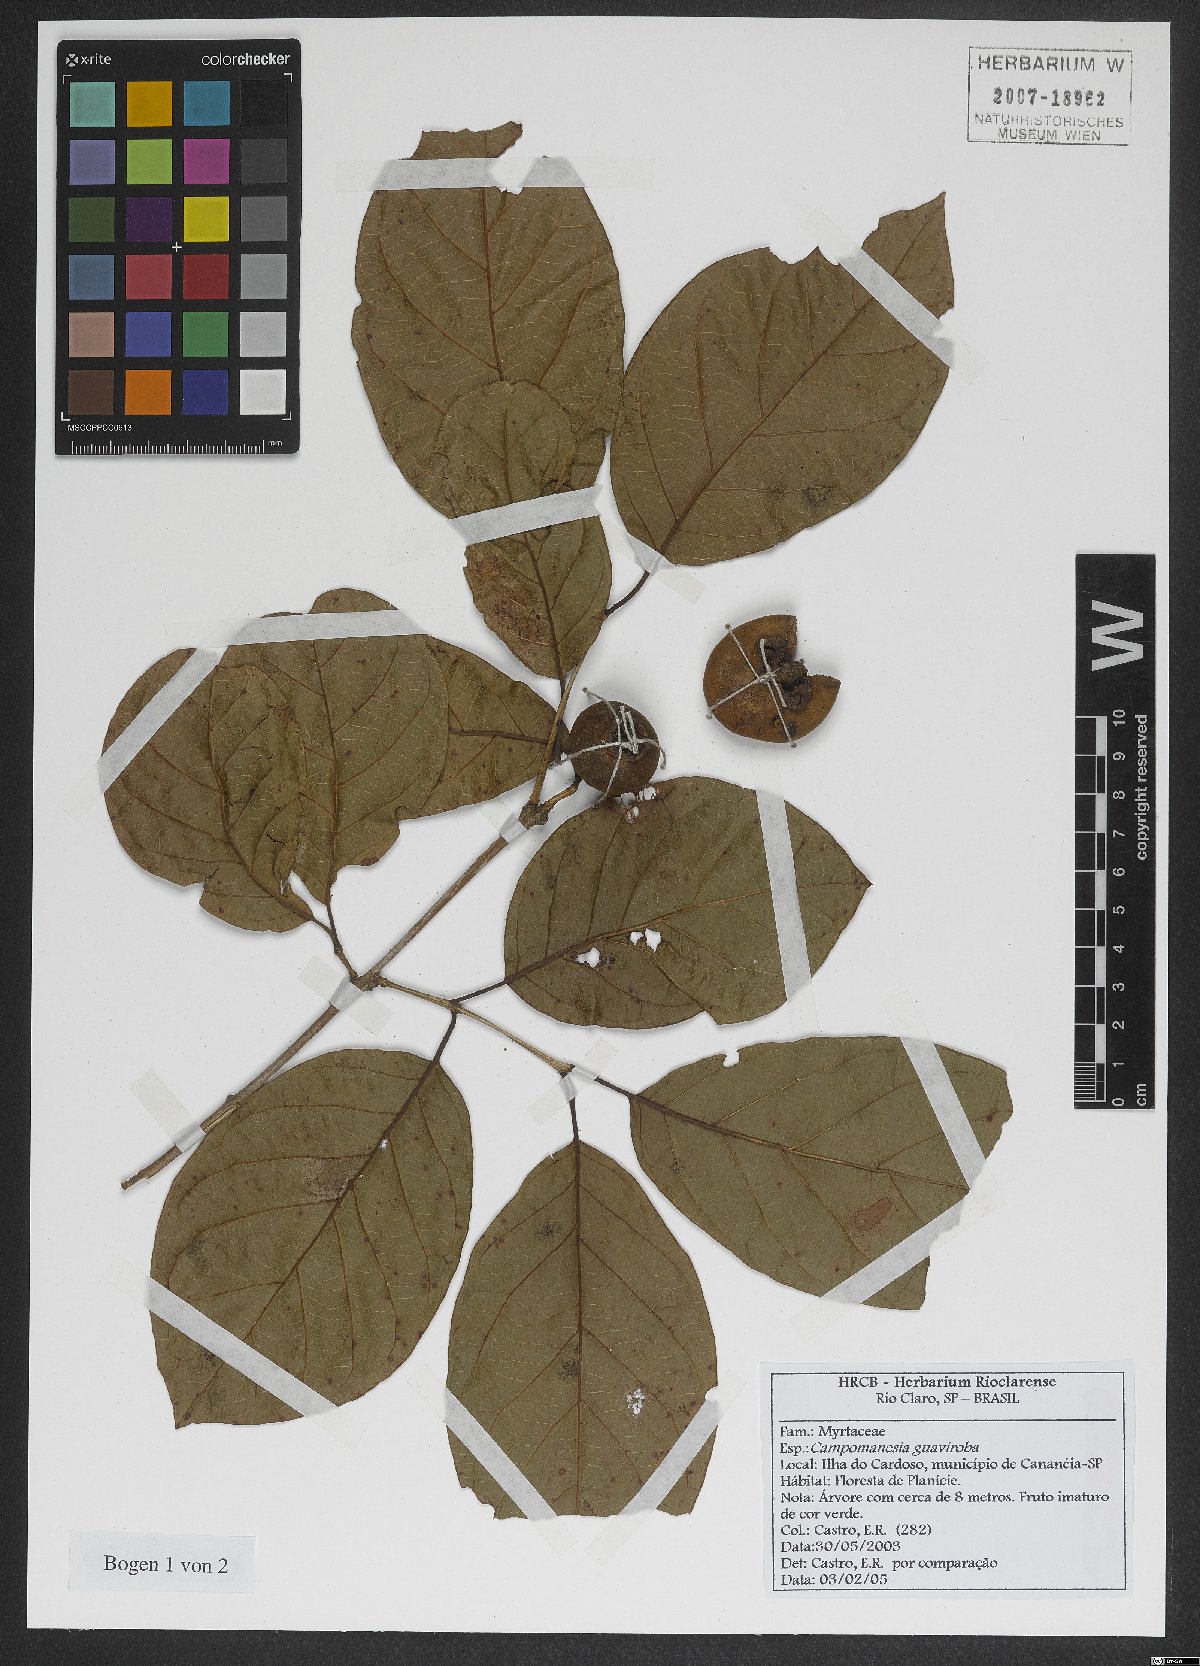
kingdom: Plantae
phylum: Tracheophyta
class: Magnoliopsida
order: Myrtales
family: Myrtaceae
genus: Campomanesia
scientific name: Campomanesia guaviroba
